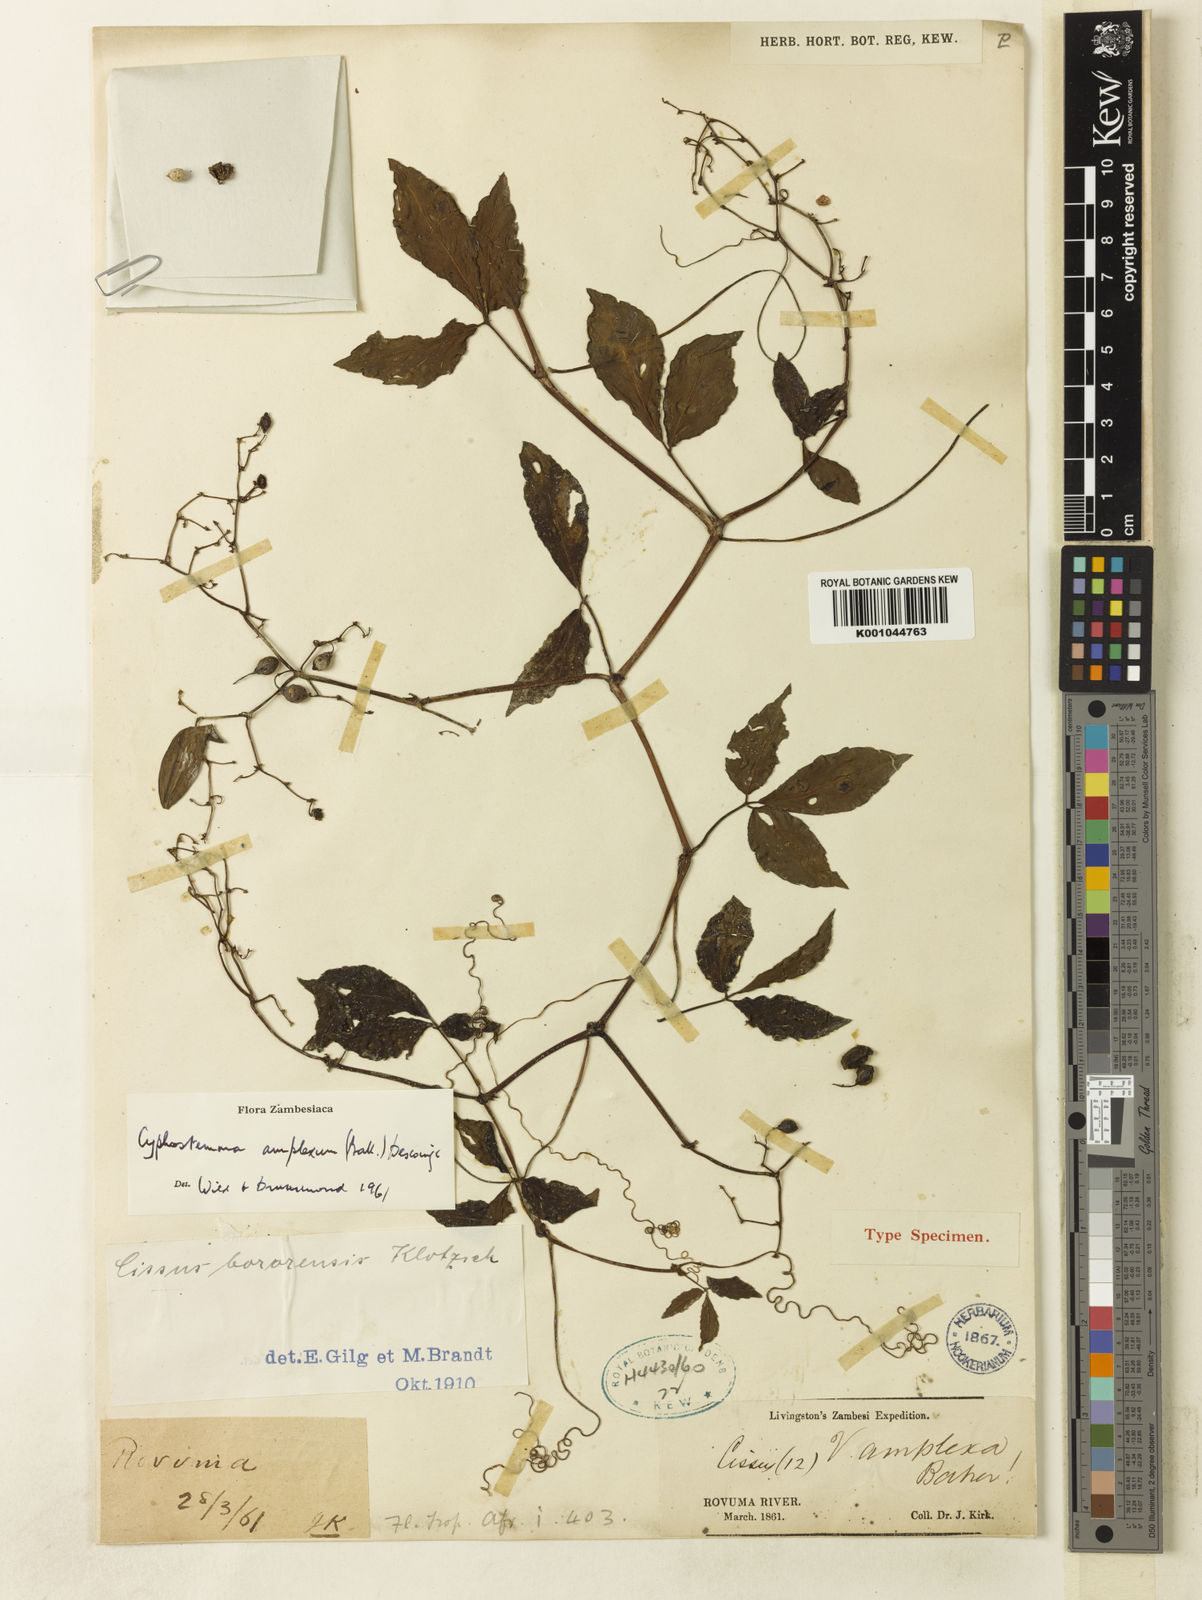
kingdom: Plantae
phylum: Tracheophyta
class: Magnoliopsida
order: Vitales
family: Vitaceae
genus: Cyphostemma
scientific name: Cyphostemma
